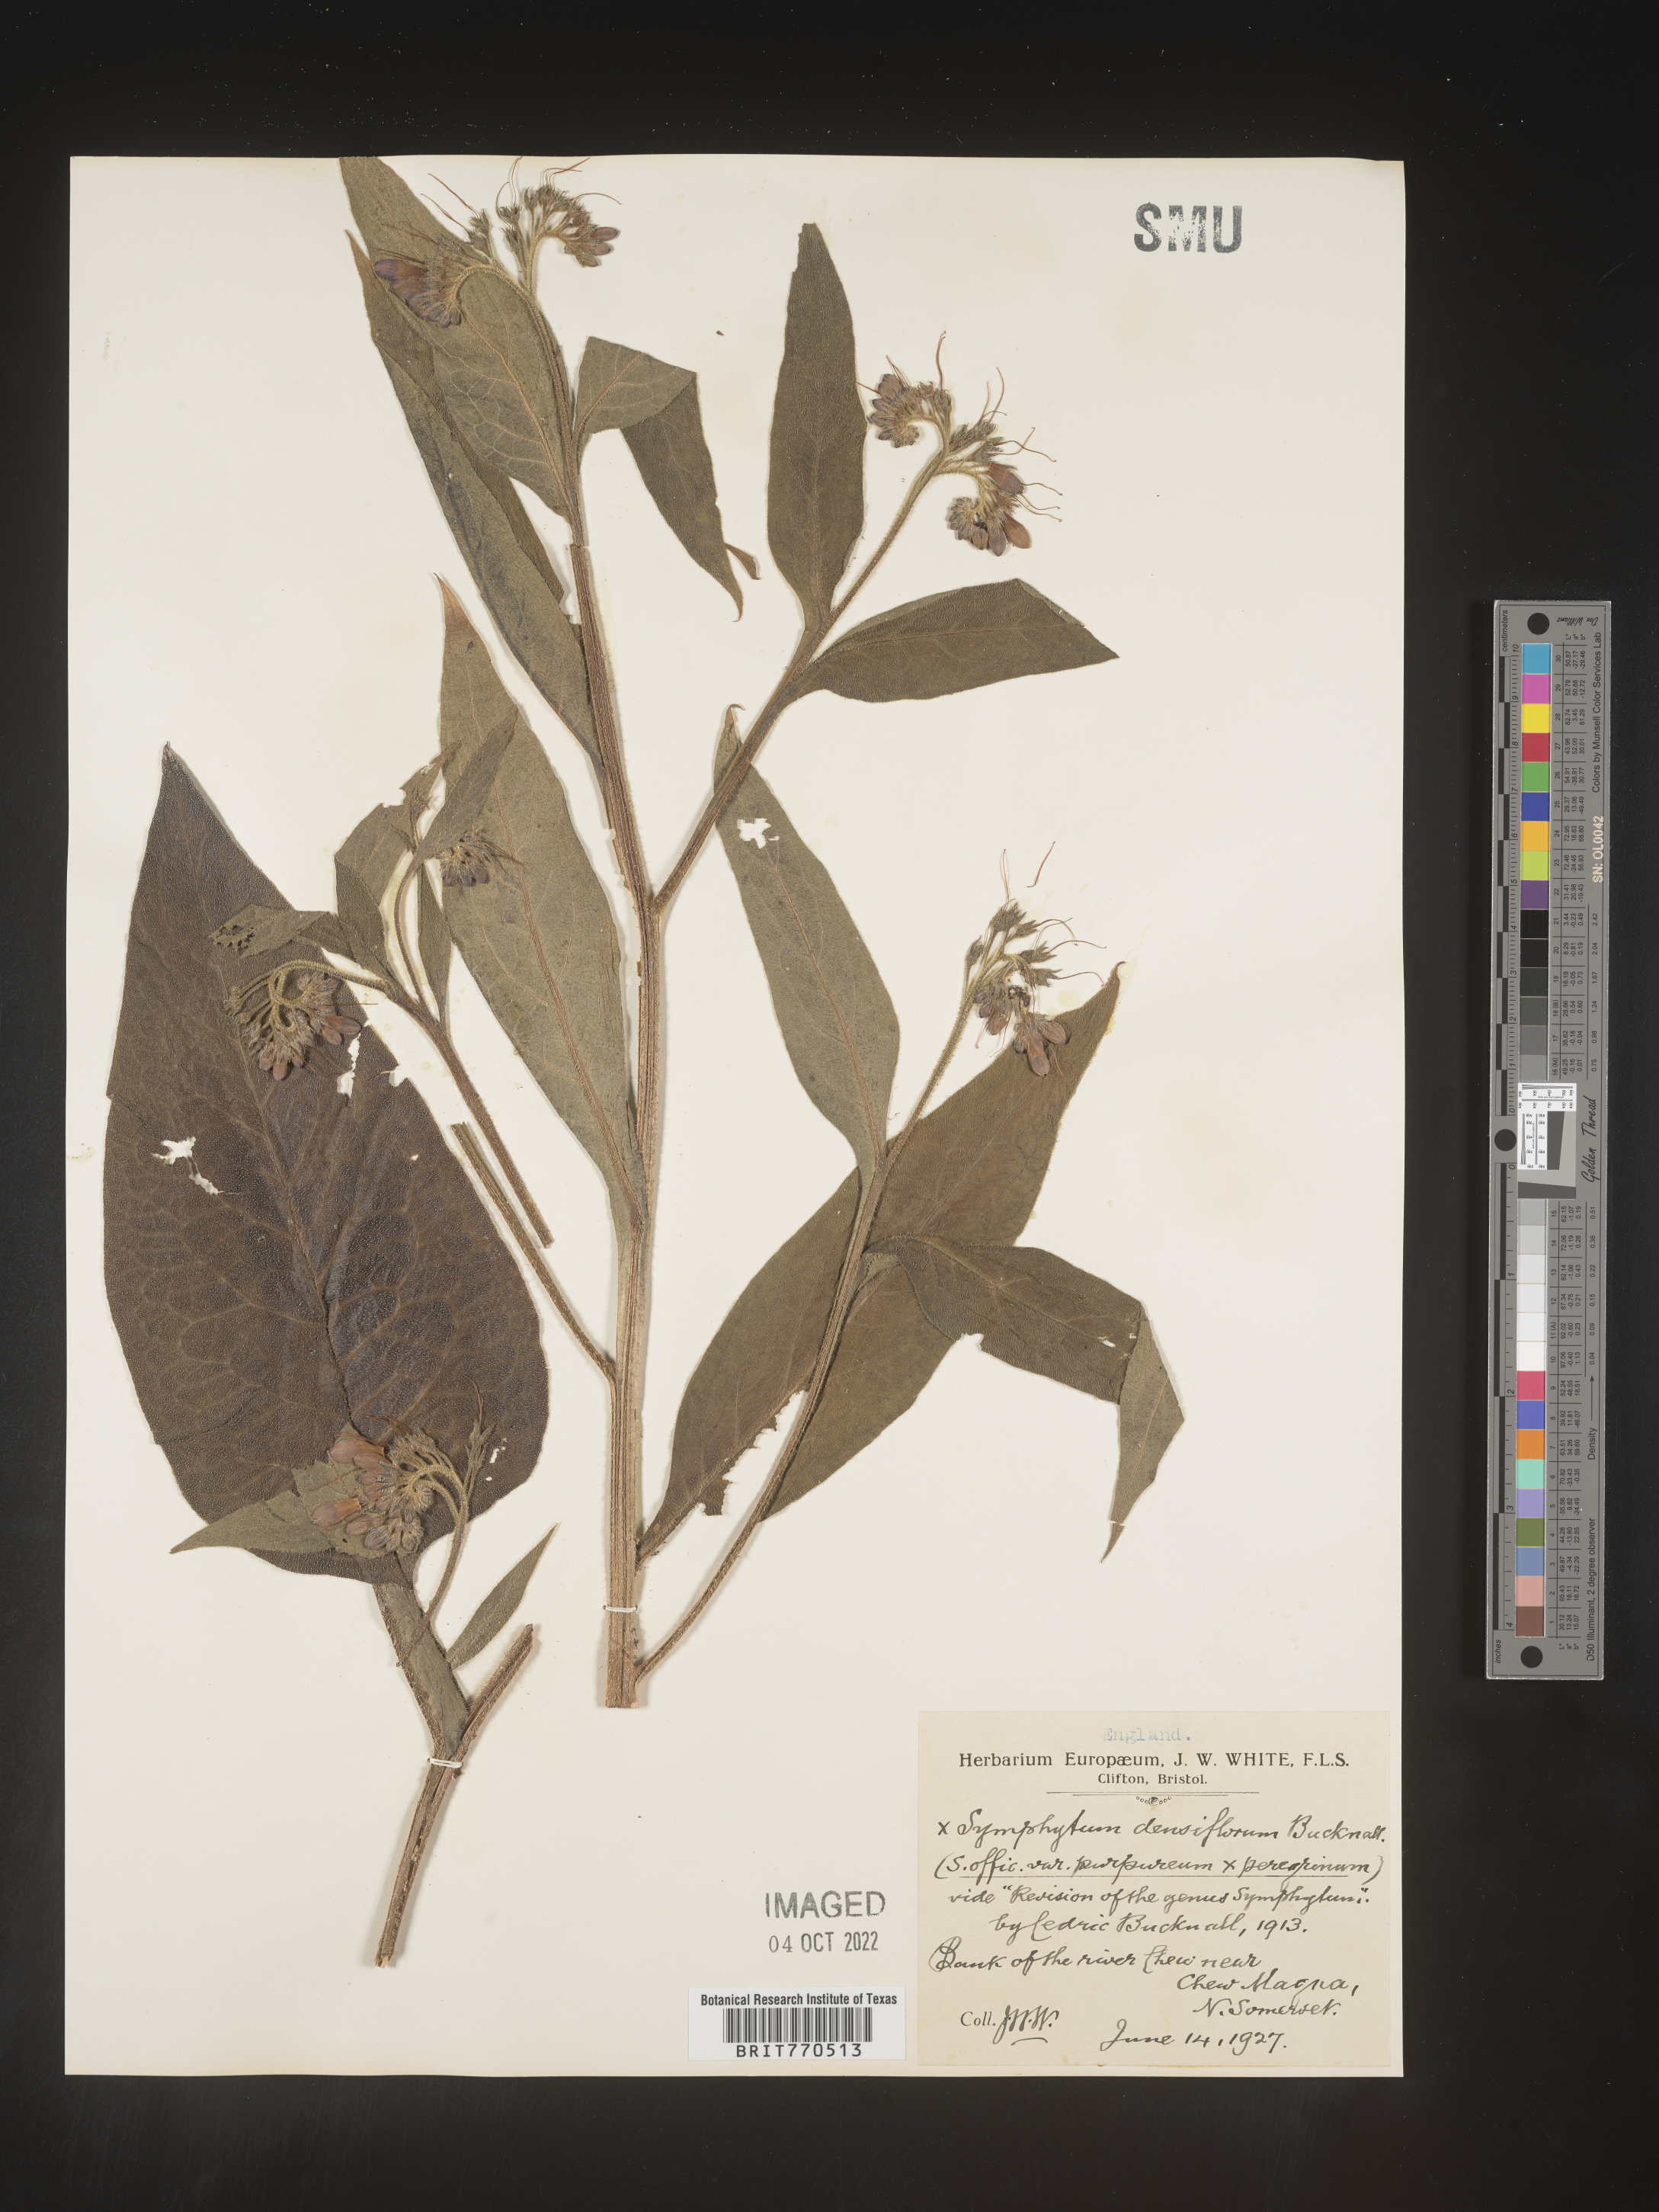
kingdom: Plantae
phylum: Tracheophyta
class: Magnoliopsida
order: Boraginales
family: Boraginaceae
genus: Symphytum
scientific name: Symphytum
